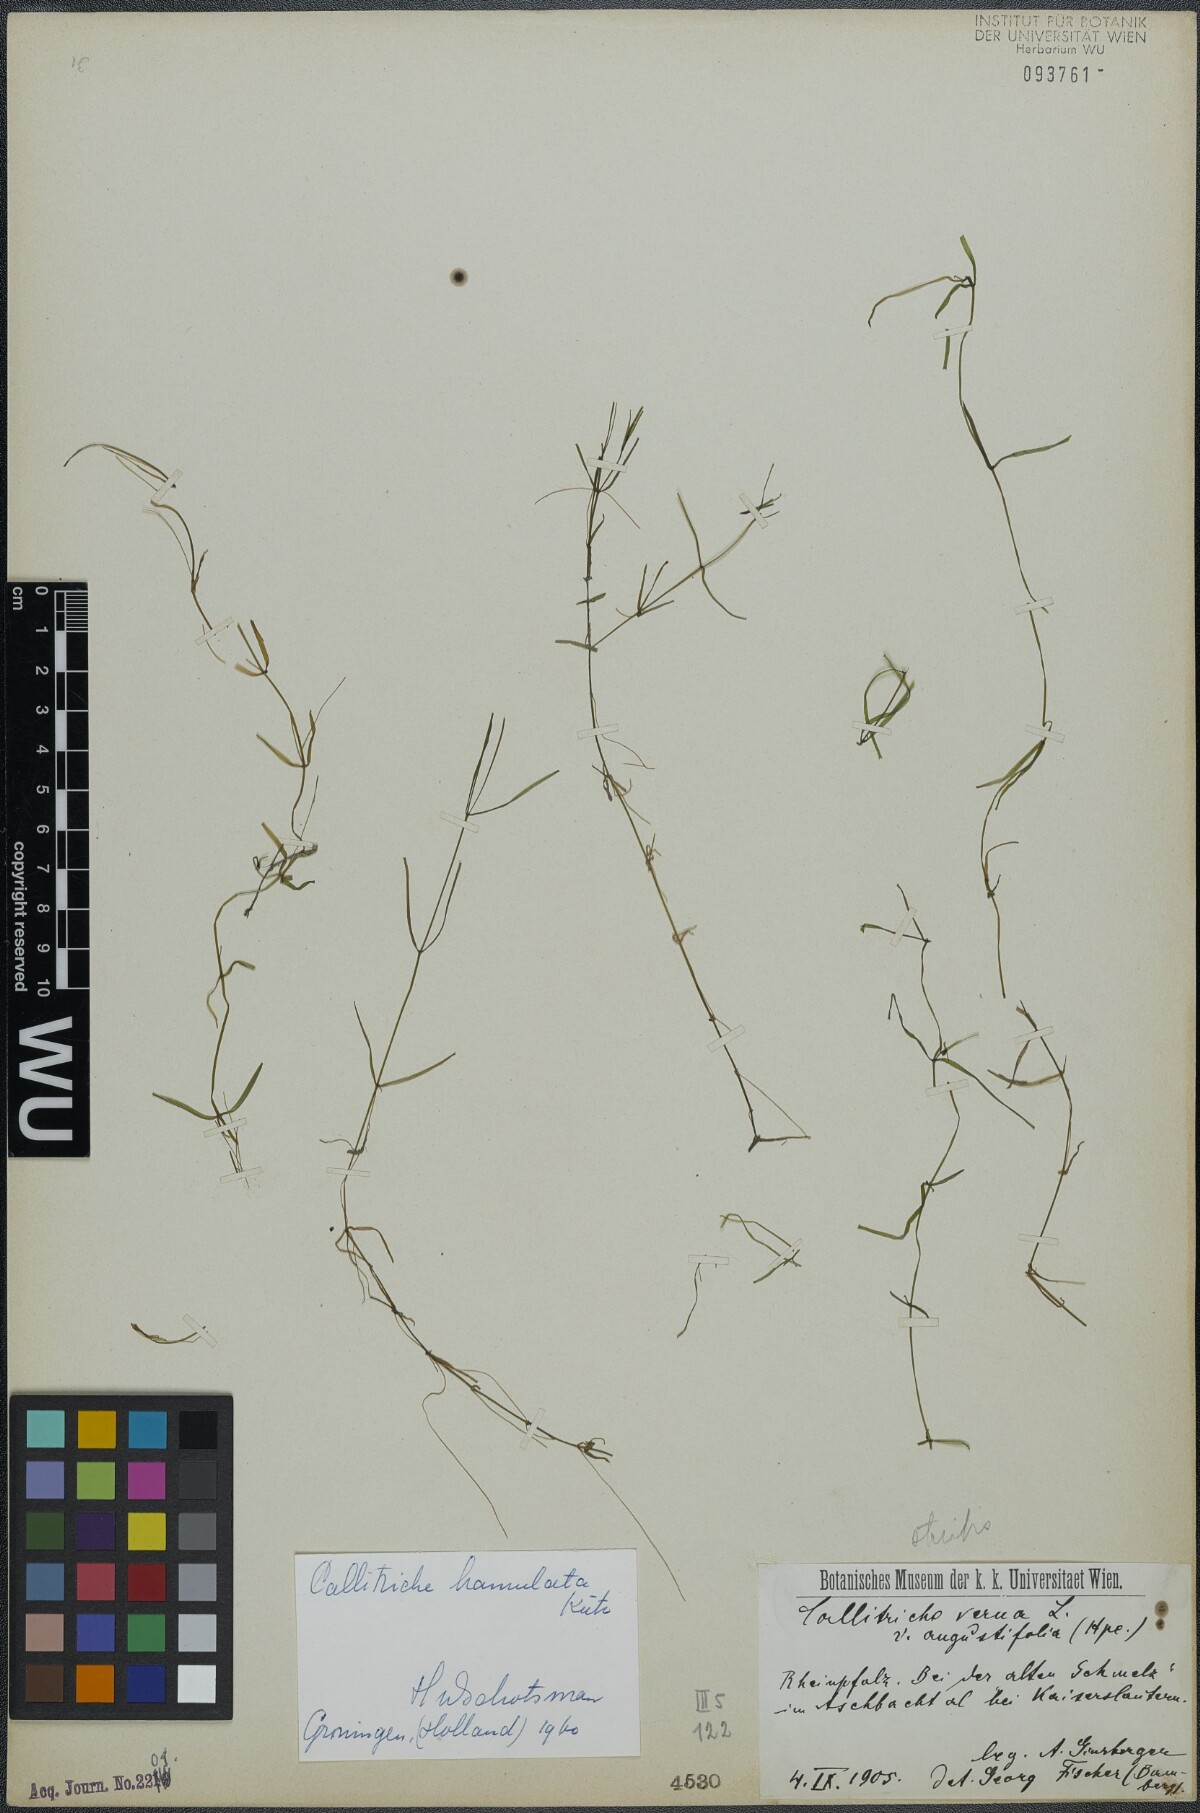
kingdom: Plantae
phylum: Tracheophyta
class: Magnoliopsida
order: Lamiales
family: Plantaginaceae
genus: Callitriche
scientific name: Callitriche hamulata
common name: Intermediate water-starwort
